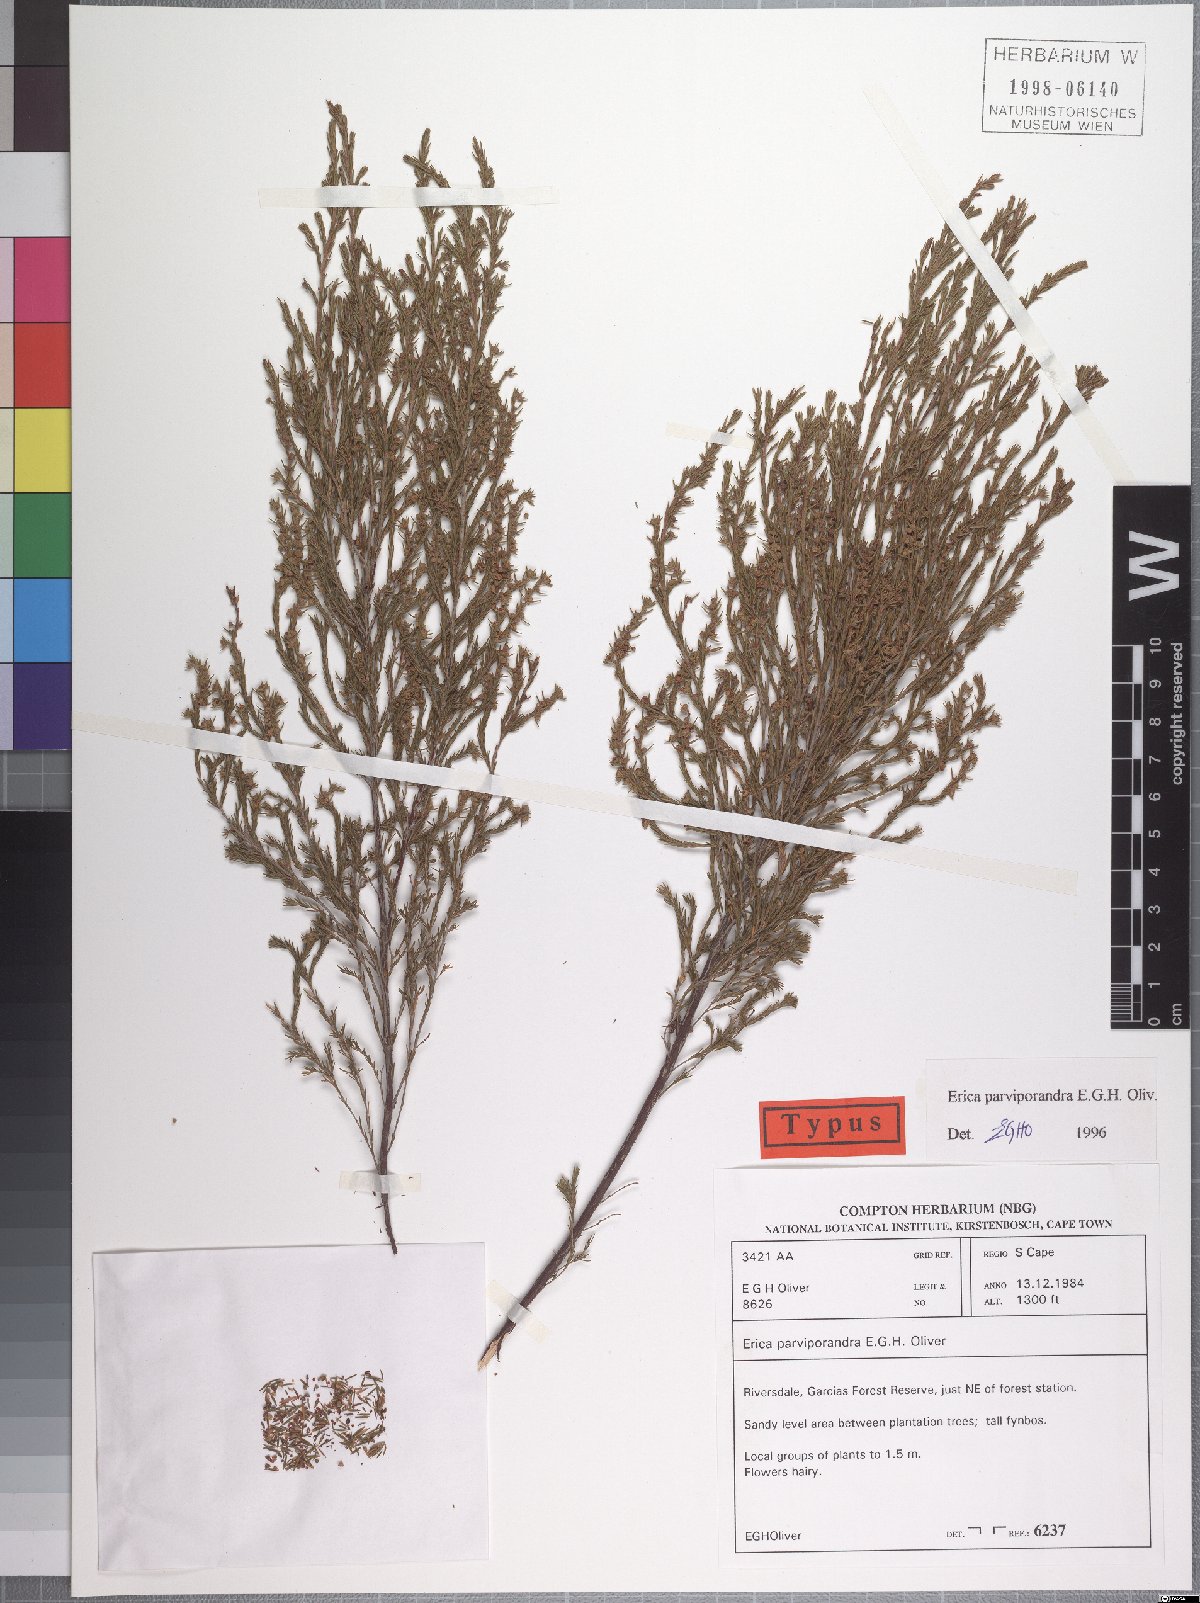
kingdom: Plantae
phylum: Tracheophyta
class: Magnoliopsida
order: Ericales
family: Ericaceae
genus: Erica
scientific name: Erica parviporandra
